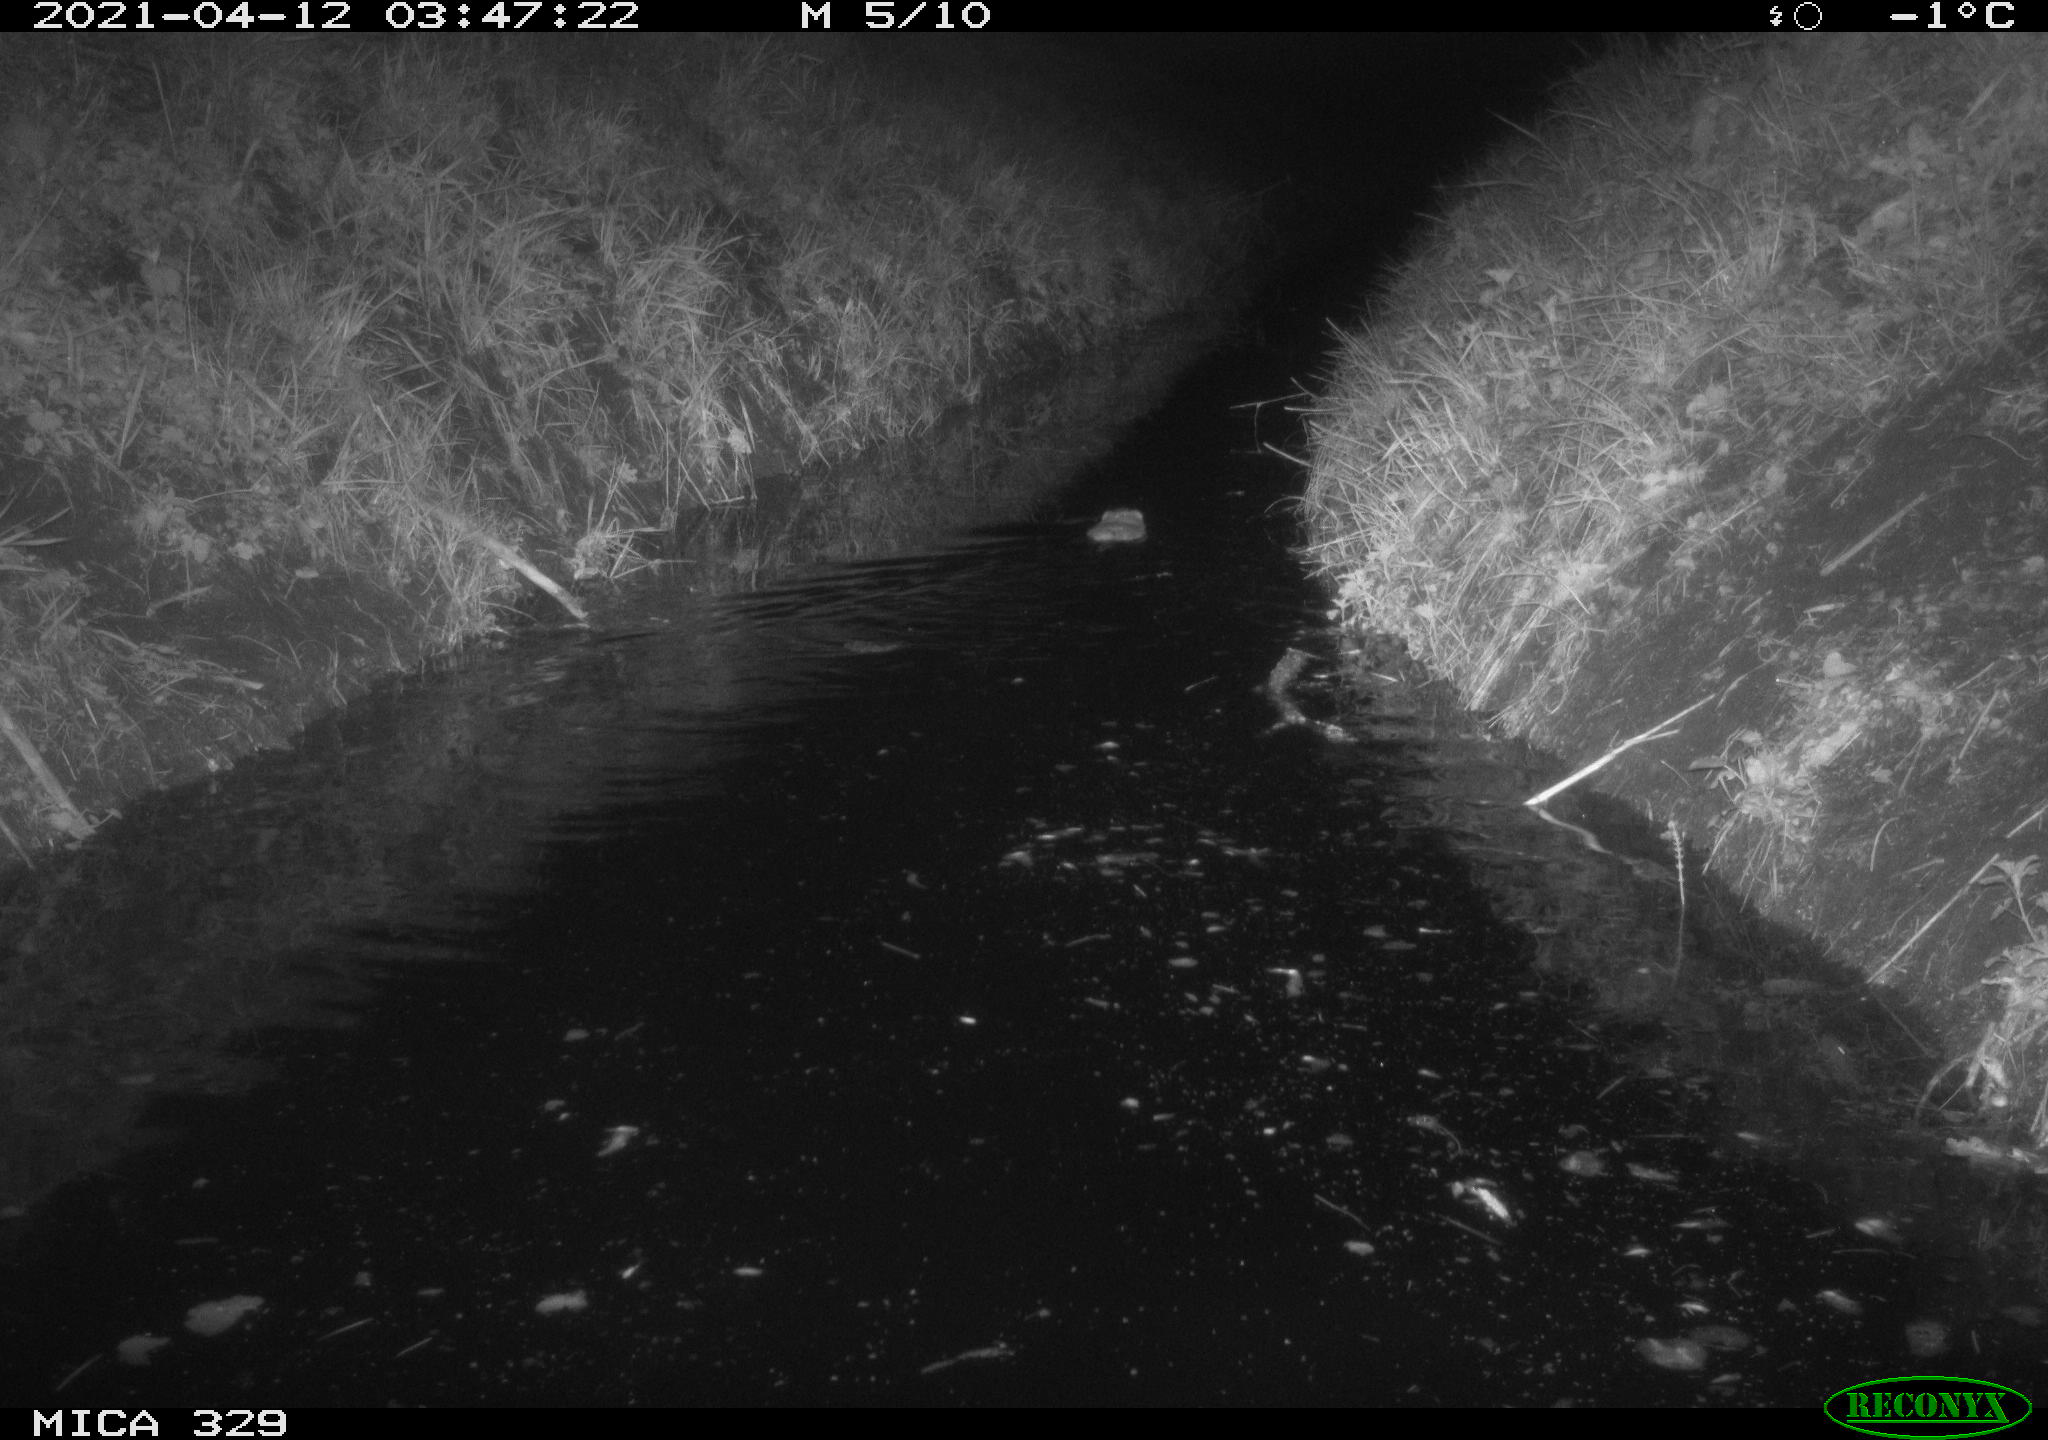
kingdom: Animalia
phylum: Chordata
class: Mammalia
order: Rodentia
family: Cricetidae
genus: Ondatra
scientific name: Ondatra zibethicus
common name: Muskrat
